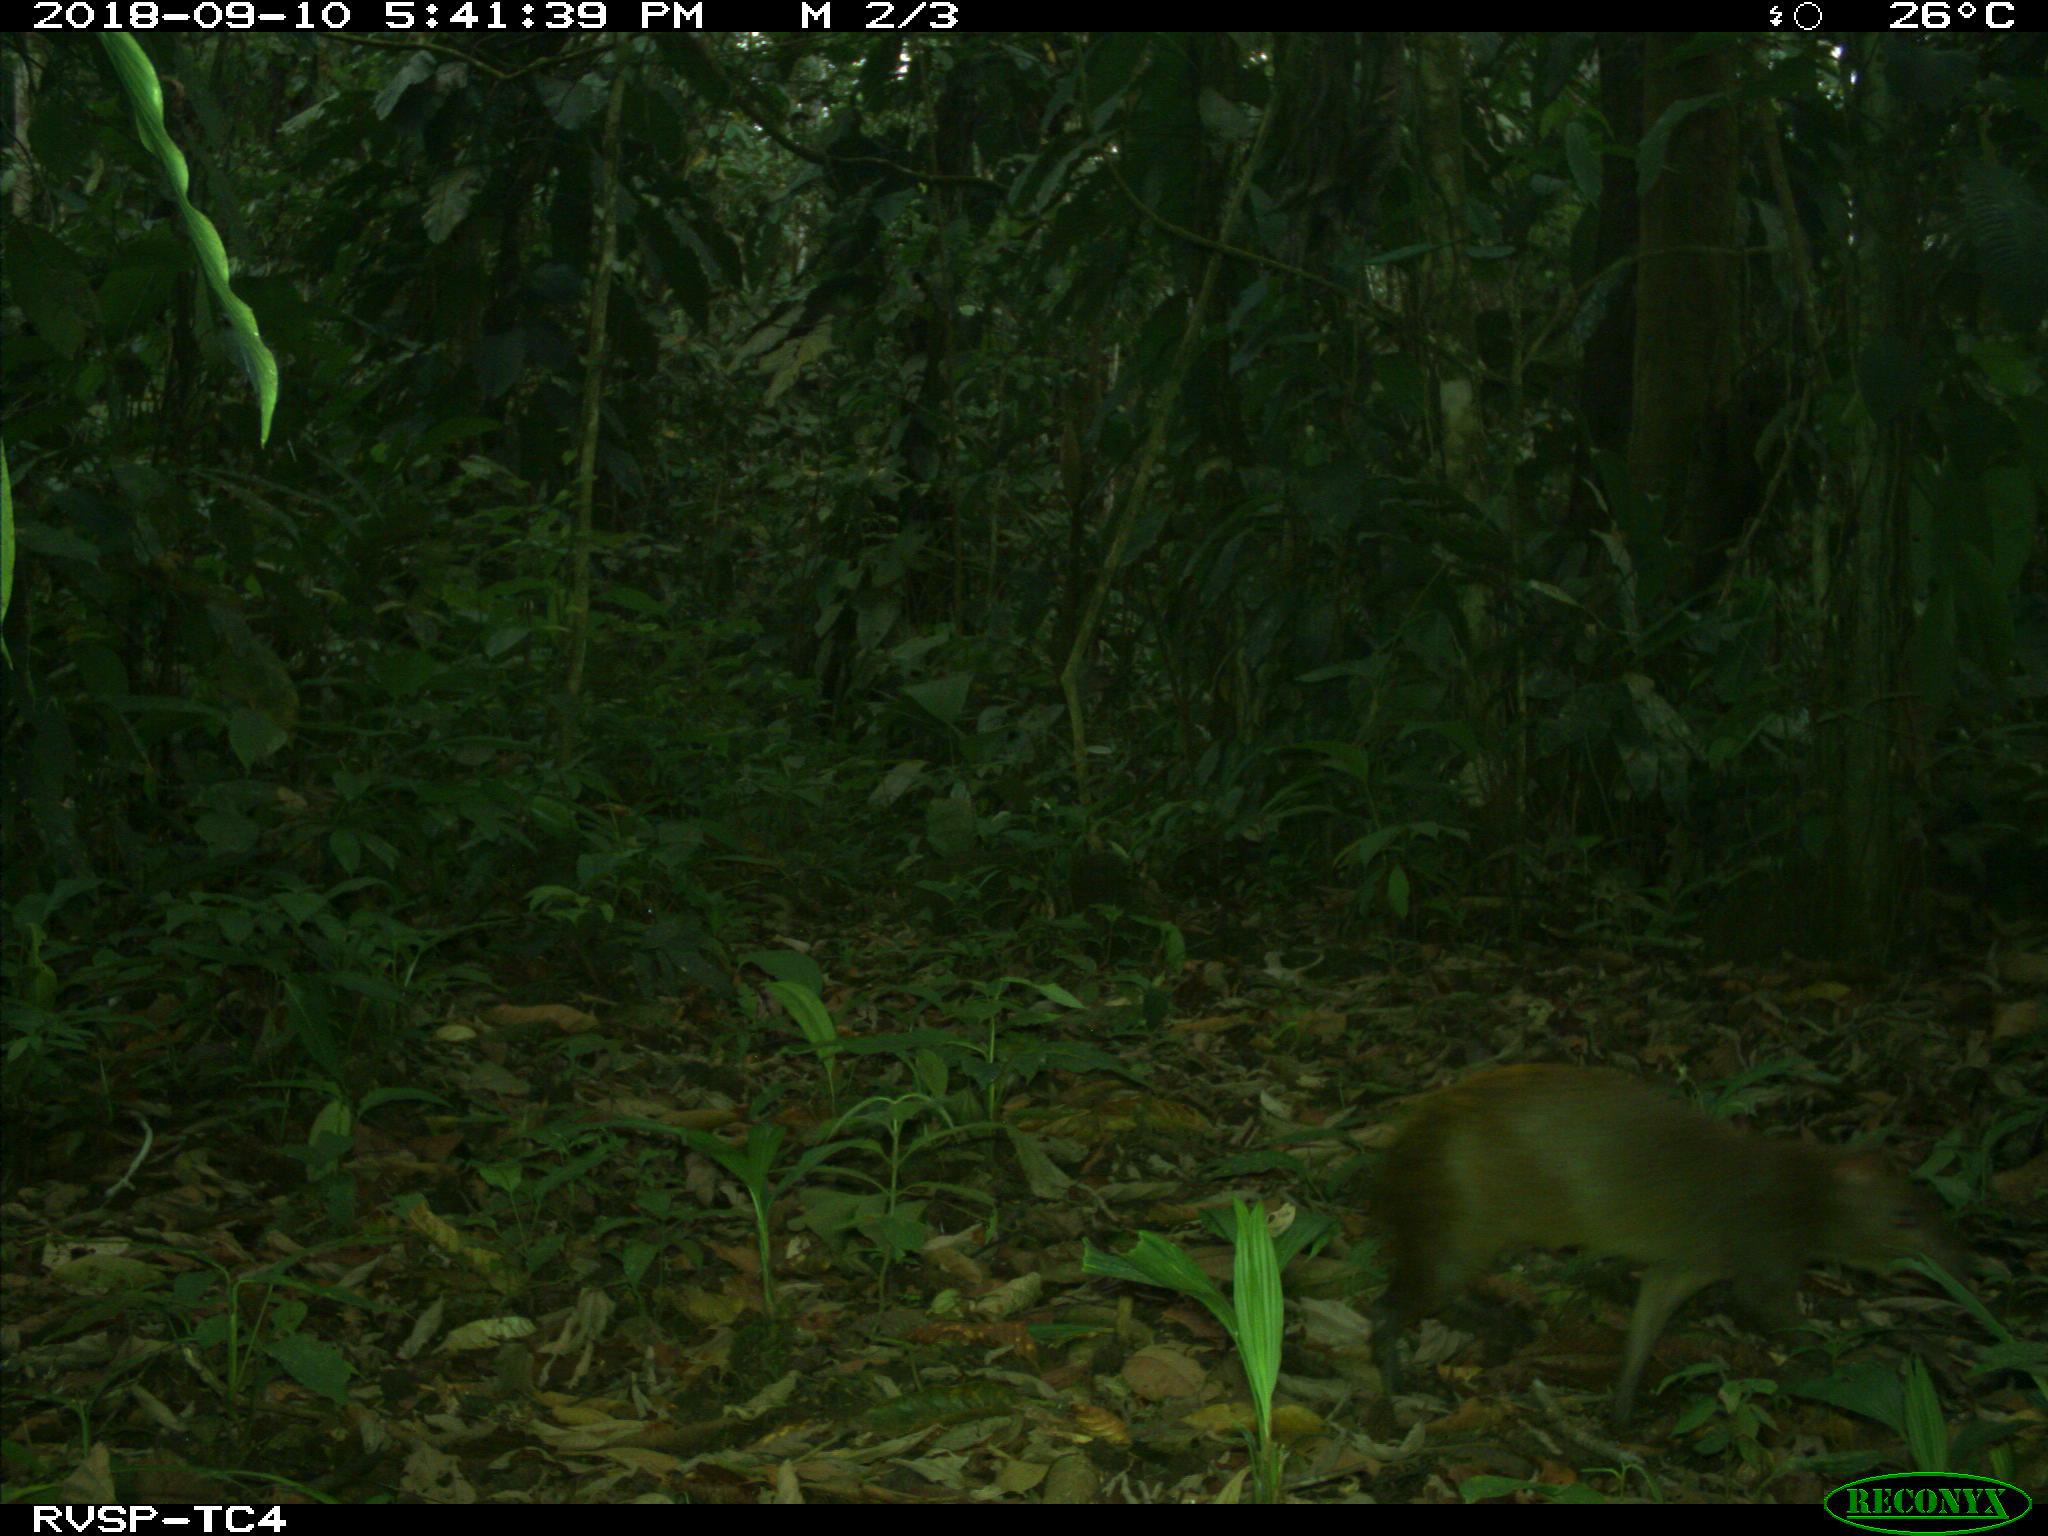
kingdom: Animalia
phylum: Chordata
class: Mammalia
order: Rodentia
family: Dasyproctidae
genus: Dasyprocta
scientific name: Dasyprocta punctata
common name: Central american agouti
